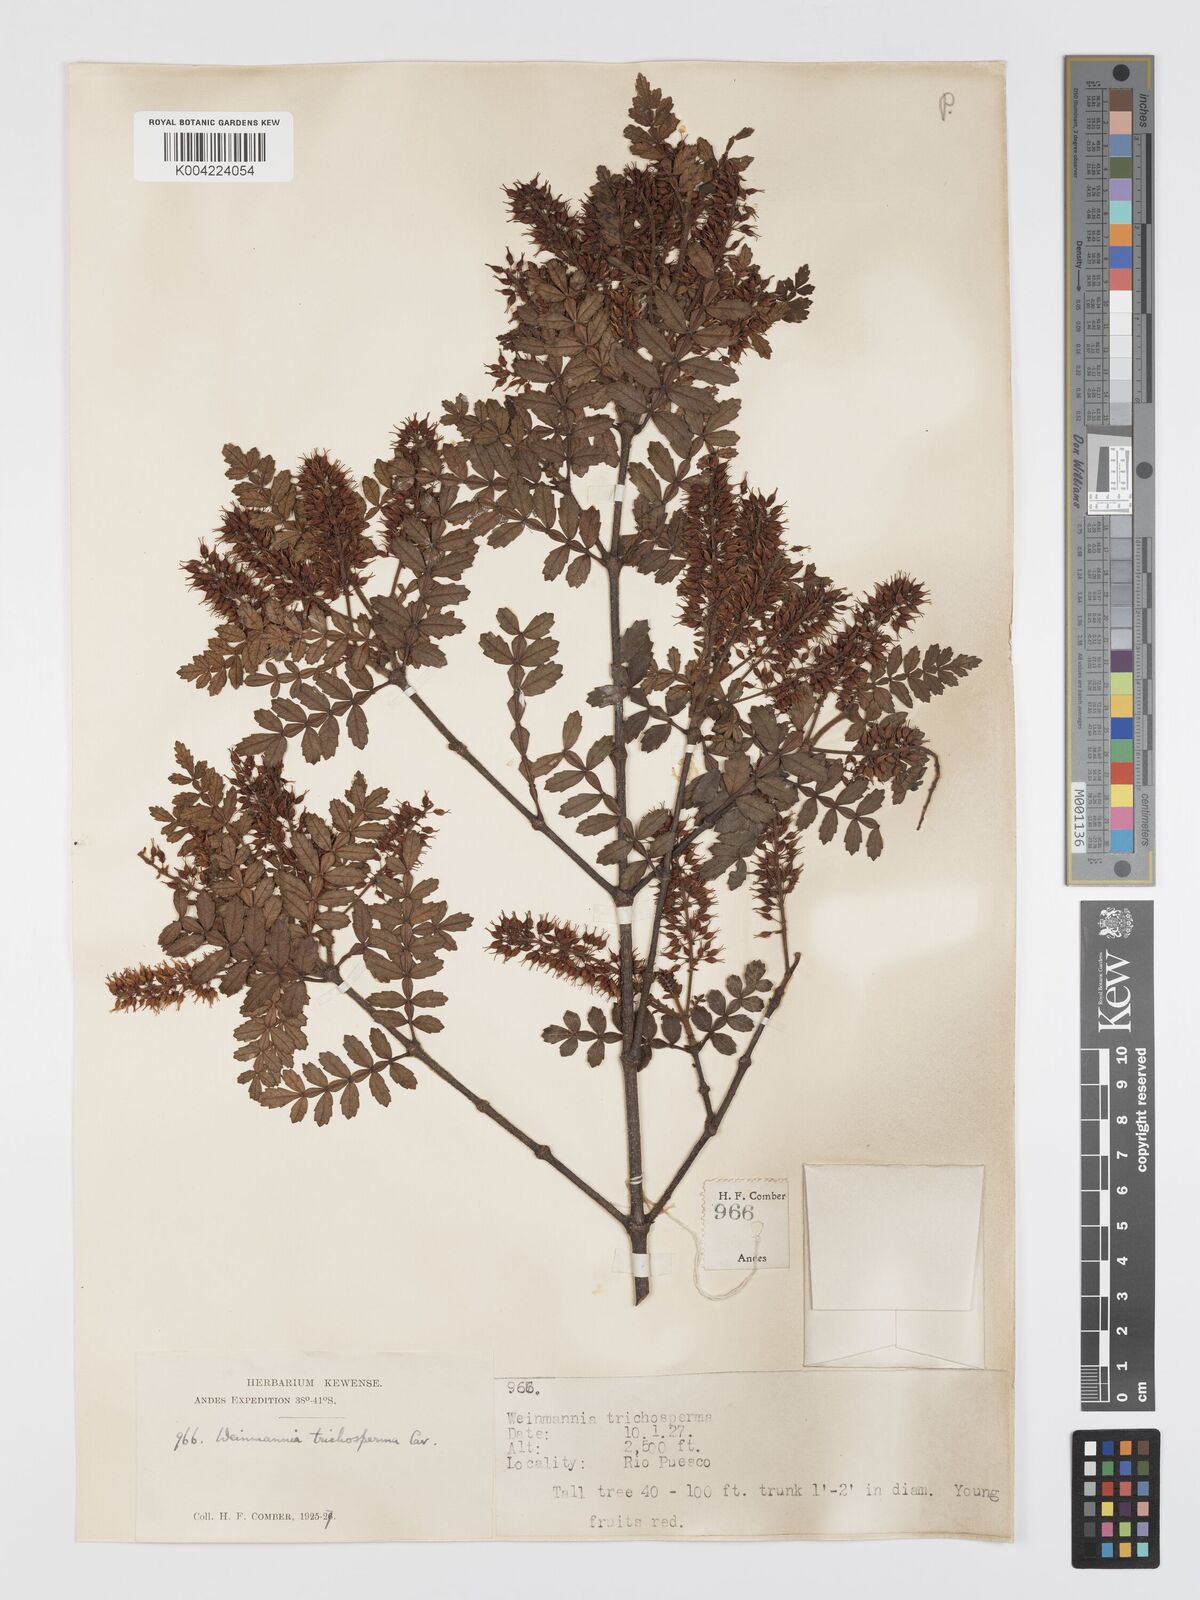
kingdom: Plantae
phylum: Tracheophyta
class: Magnoliopsida
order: Oxalidales
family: Cunoniaceae
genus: Weinmannia
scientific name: Weinmannia trichosperma
